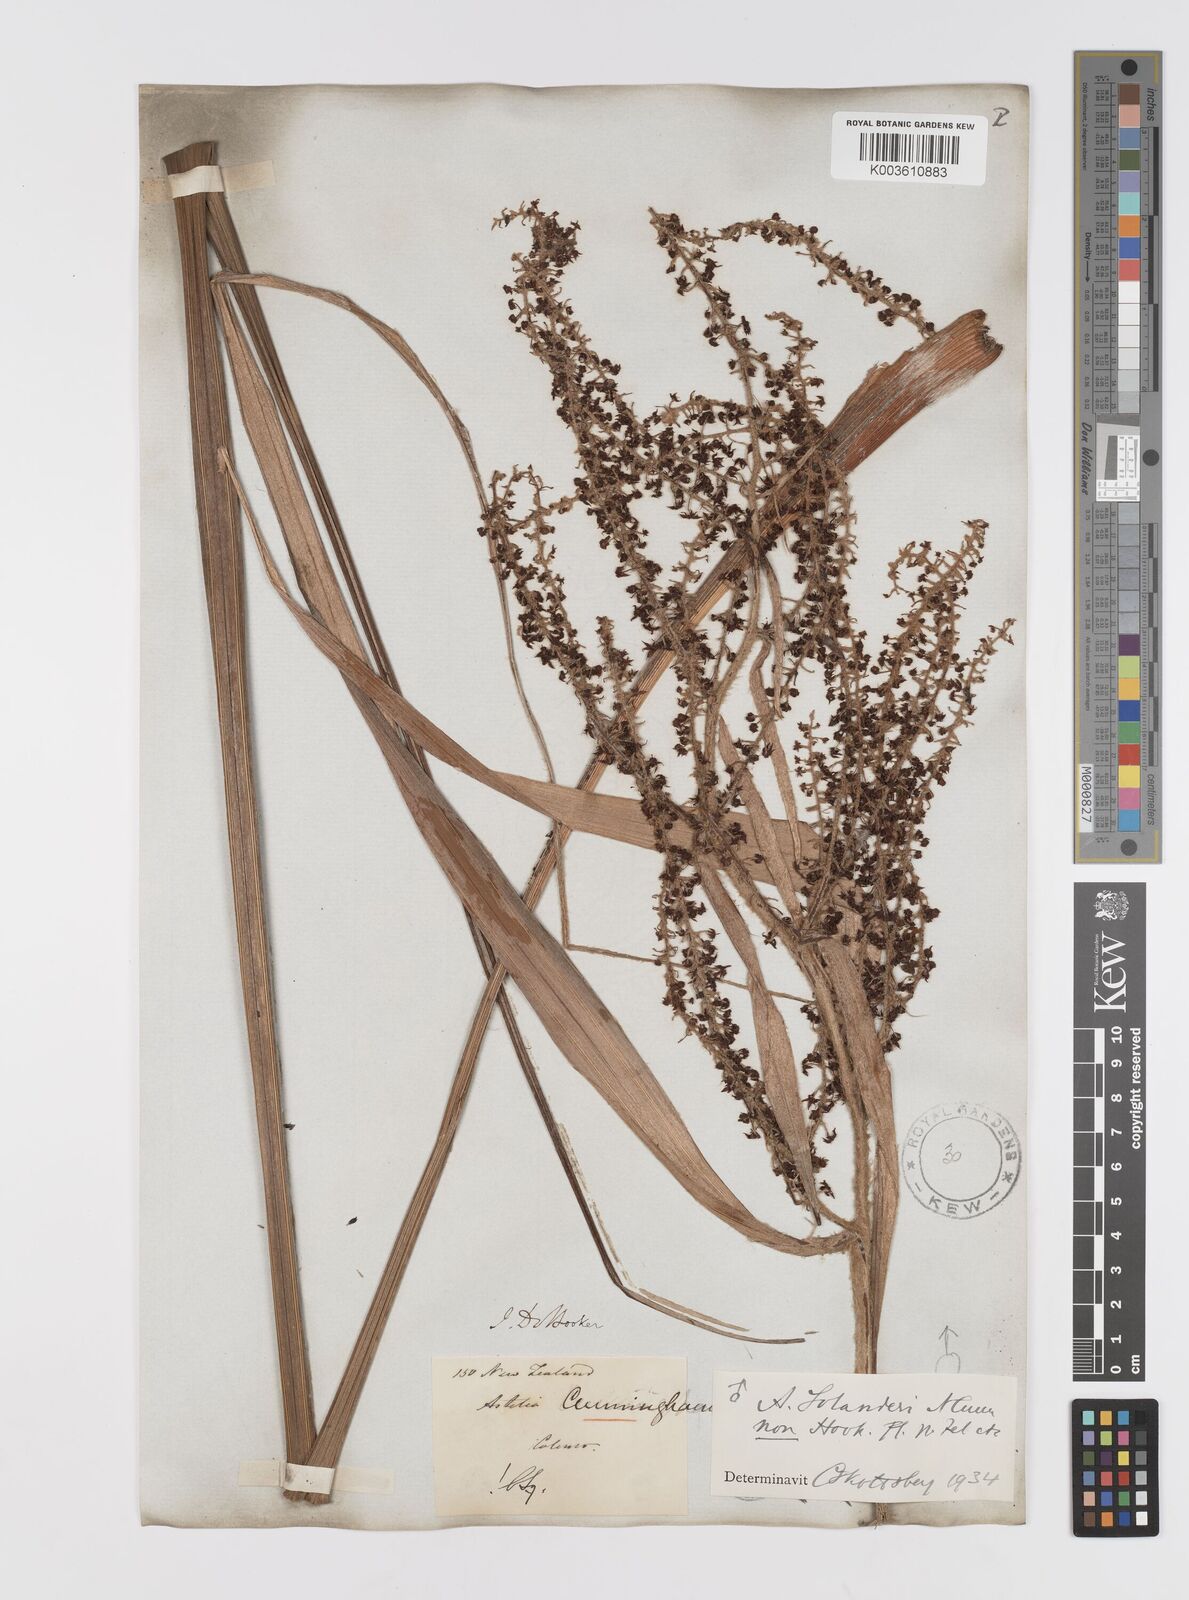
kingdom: Plantae
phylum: Tracheophyta
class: Liliopsida
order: Asparagales
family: Asteliaceae
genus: Astelia
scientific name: Astelia solandri
